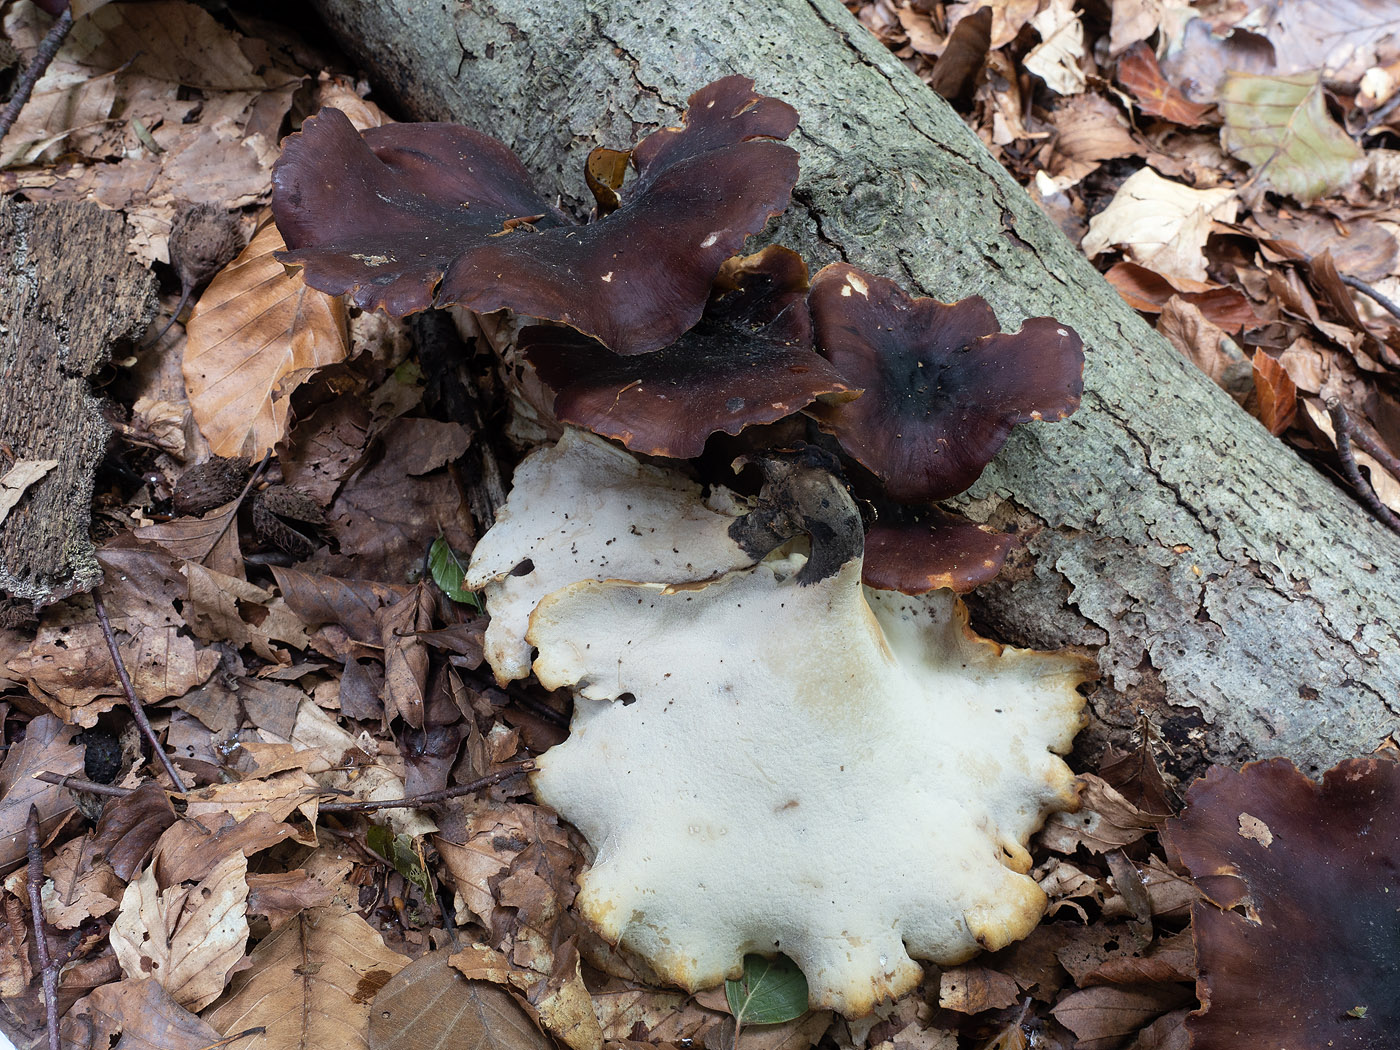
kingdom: Fungi
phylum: Basidiomycota
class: Agaricomycetes
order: Polyporales
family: Polyporaceae
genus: Picipes
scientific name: Picipes badius
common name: kastaniebrun stilkporesvamp
